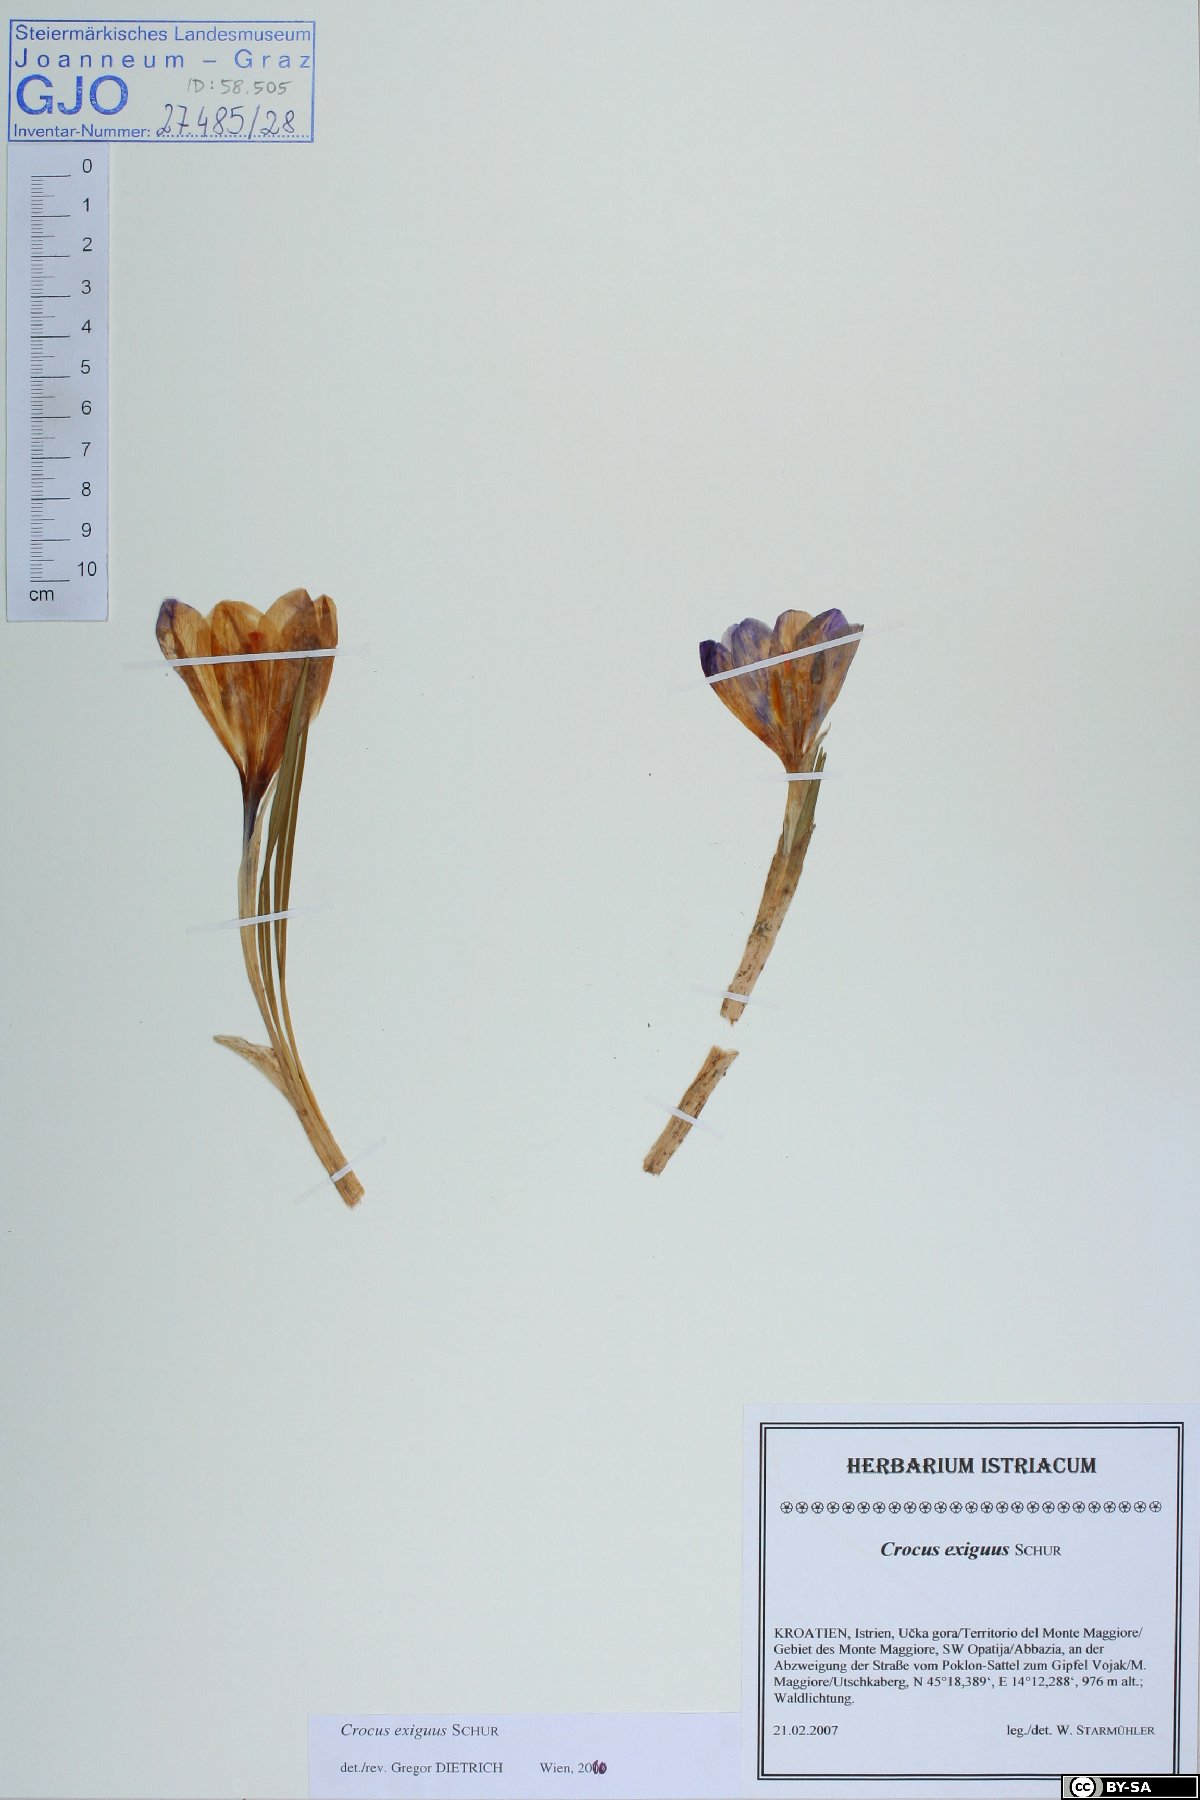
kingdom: Plantae
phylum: Tracheophyta
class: Liliopsida
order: Asparagales
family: Iridaceae
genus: Crocus
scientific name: Crocus heuffelianus
